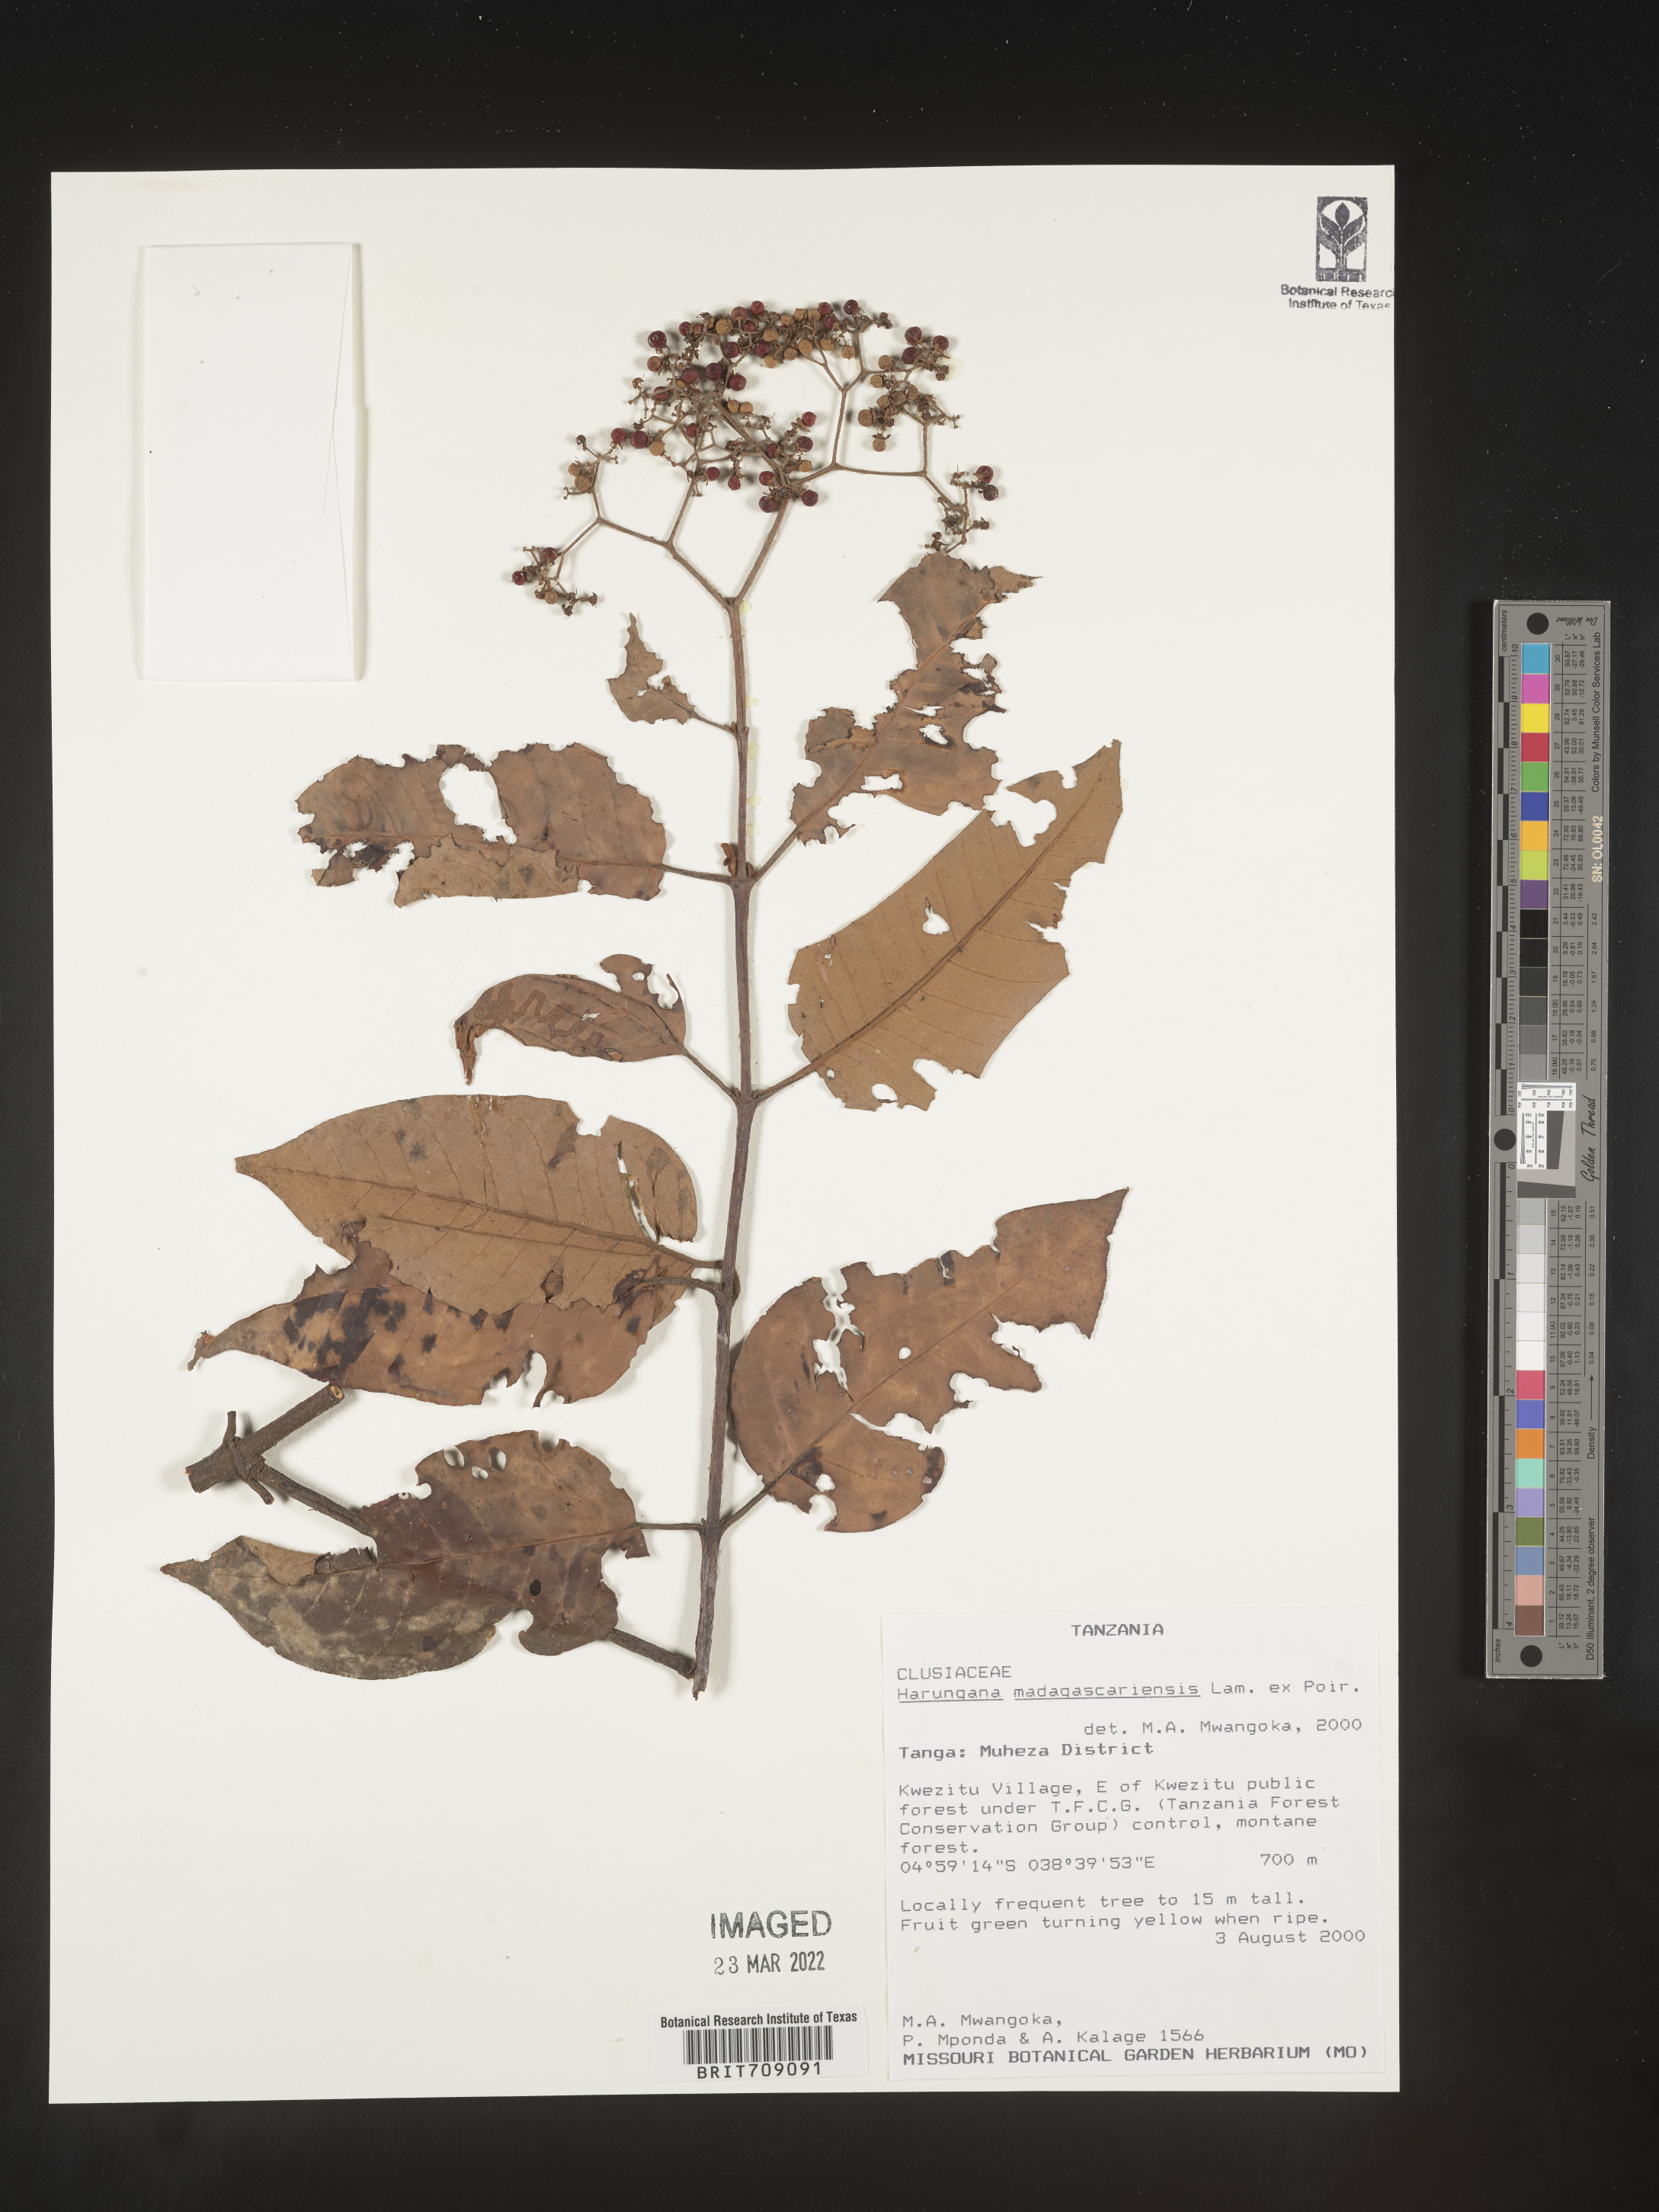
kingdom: Plantae
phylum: Tracheophyta
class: Magnoliopsida
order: Malpighiales
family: Hypericaceae
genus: Harungana
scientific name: Harungana
